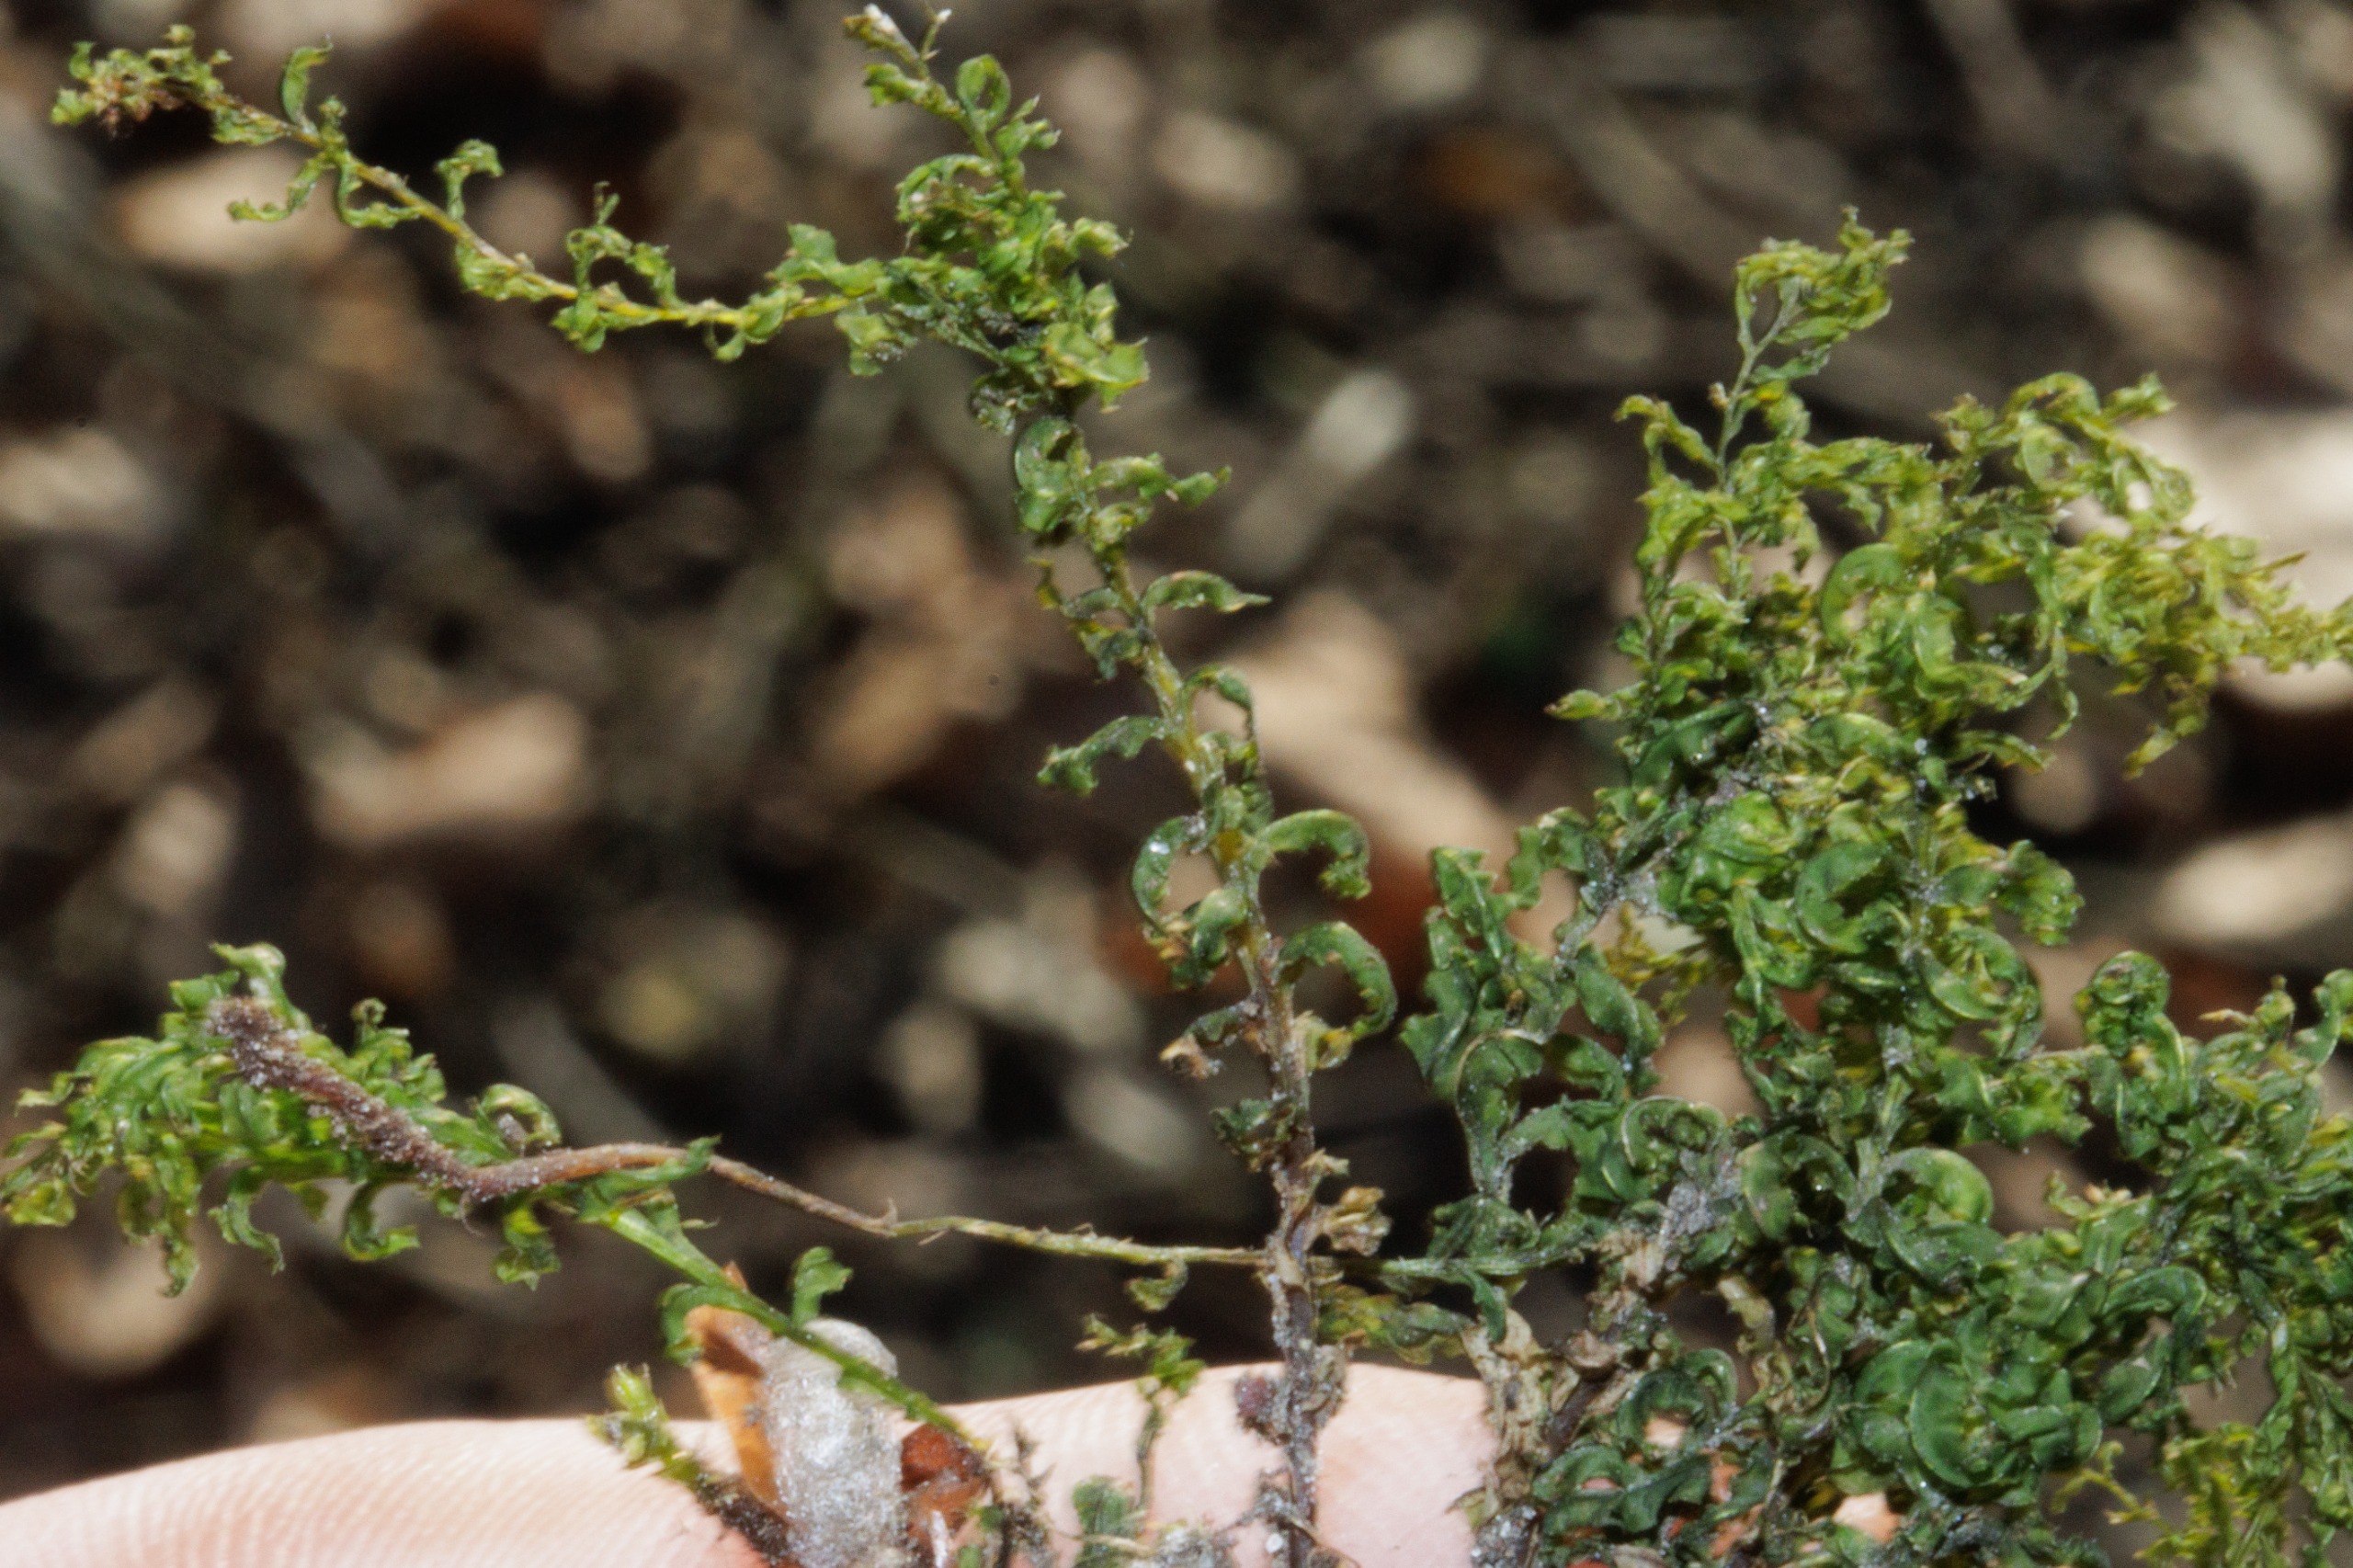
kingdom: Plantae
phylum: Bryophyta
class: Bryopsida
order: Bryales
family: Mniaceae
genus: Plagiomnium
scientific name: Plagiomnium undulatum
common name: Bølget krybstjerne
